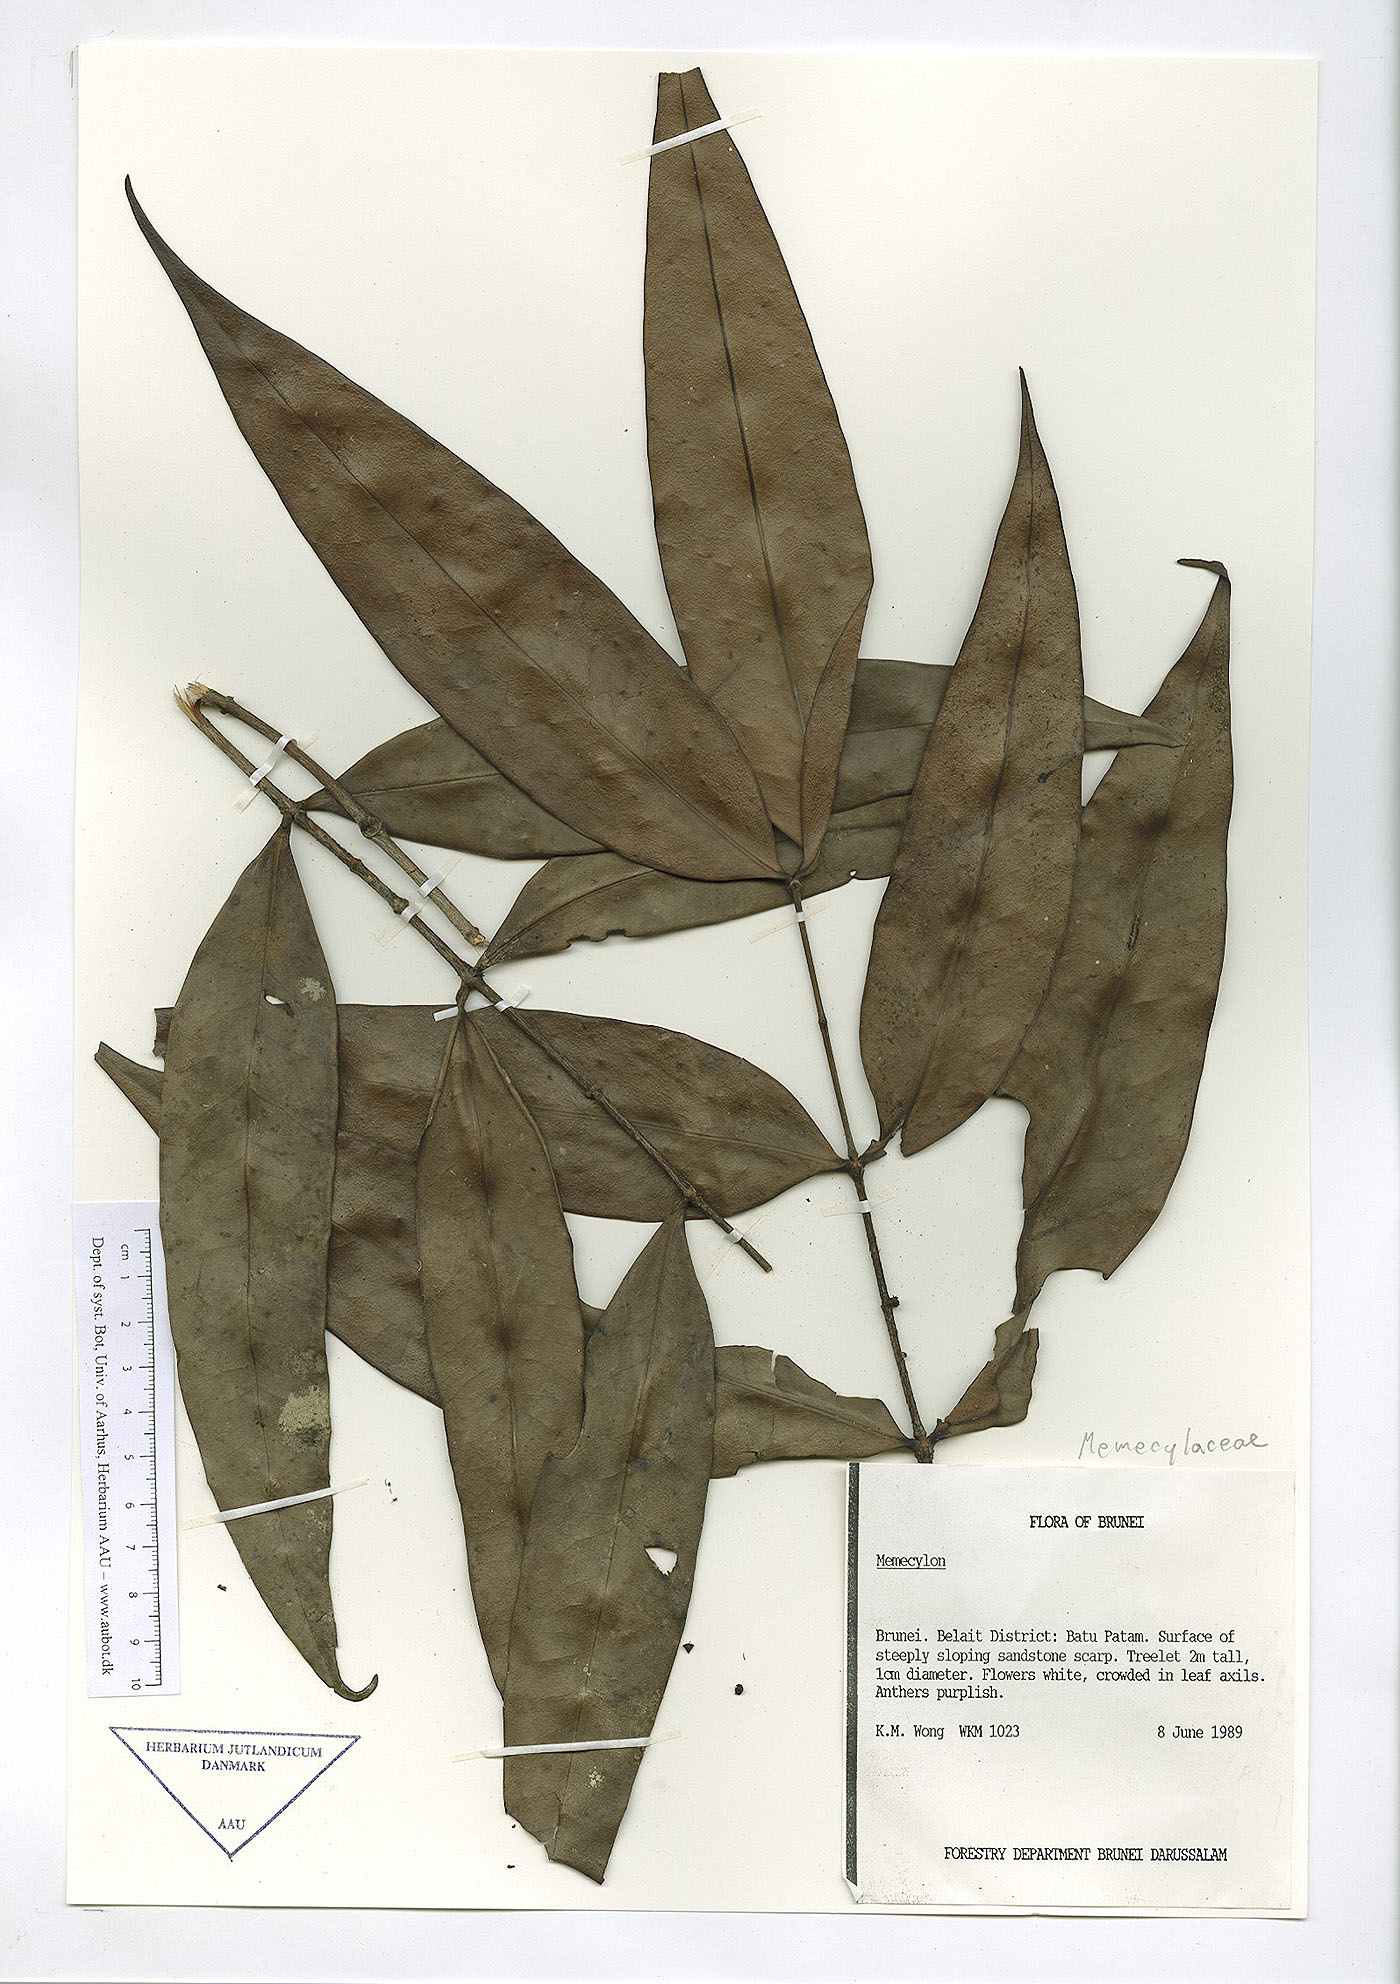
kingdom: Plantae
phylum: Tracheophyta
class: Magnoliopsida
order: Myrtales
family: Melastomataceae
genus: Memecylon
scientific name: Memecylon
